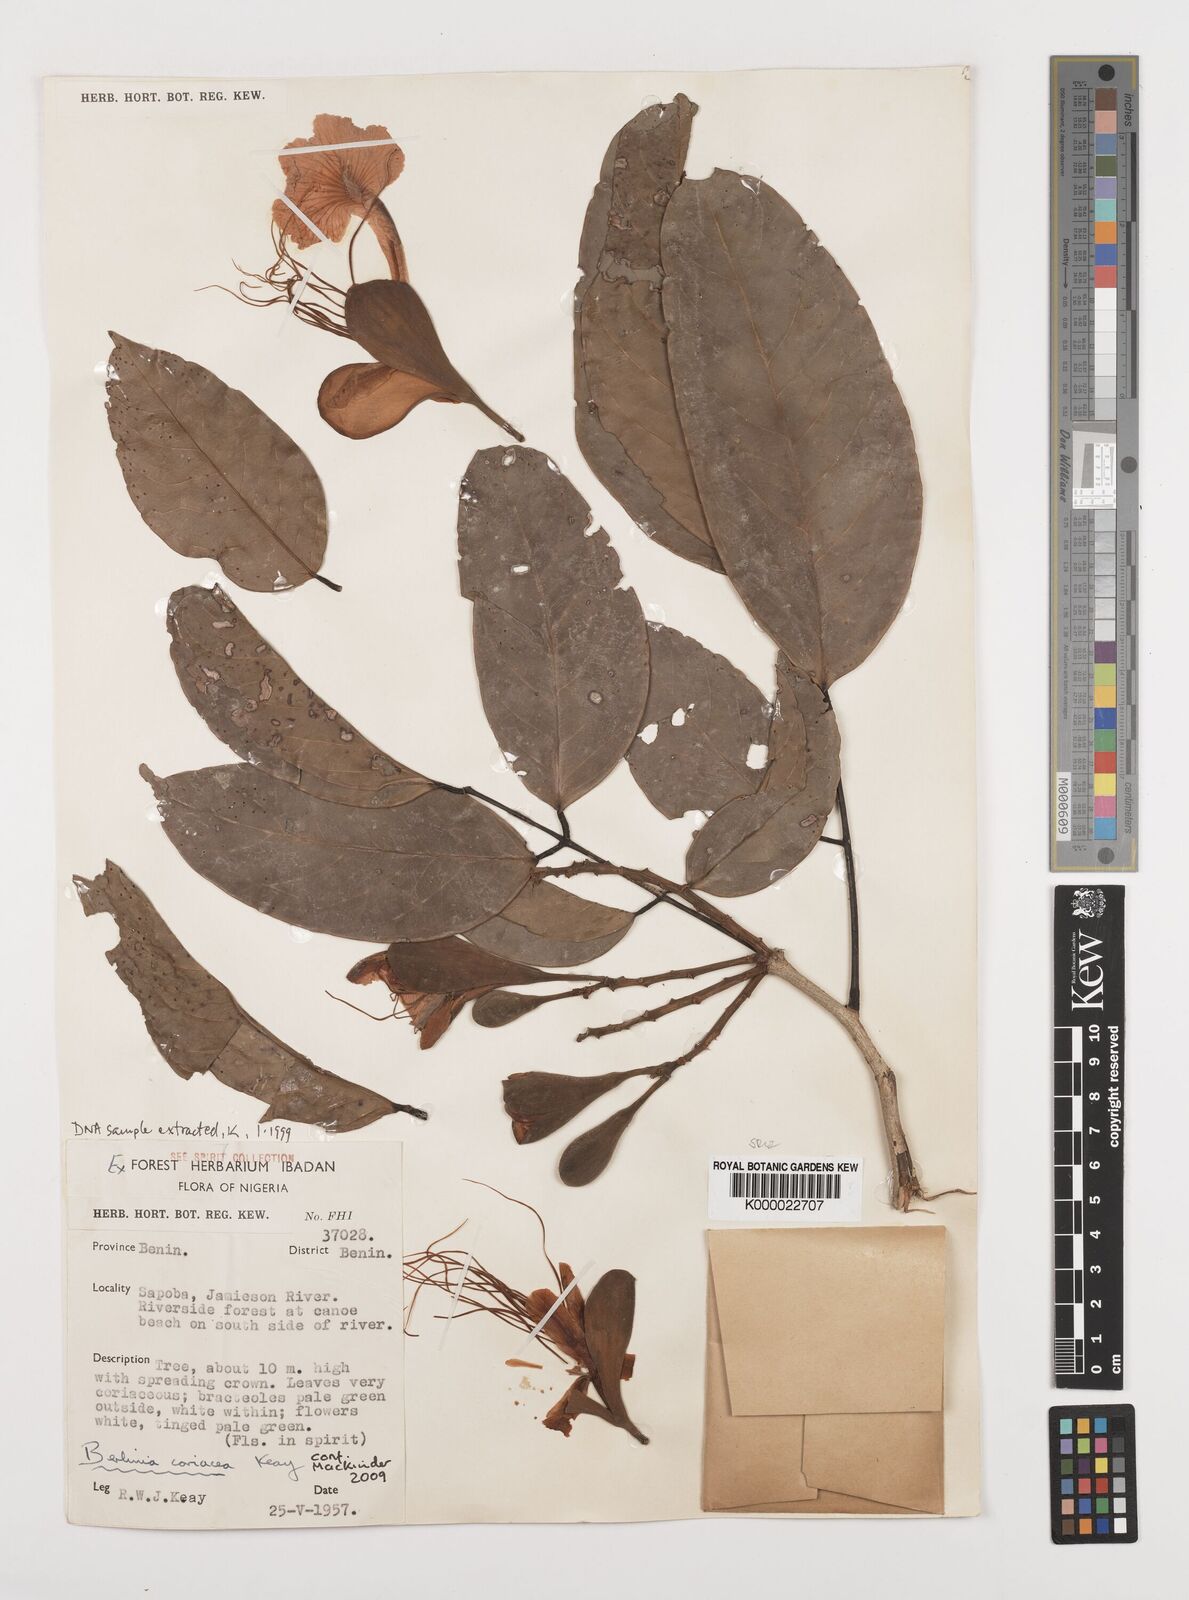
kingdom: Plantae
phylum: Tracheophyta
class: Magnoliopsida
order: Fabales
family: Fabaceae
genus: Berlinia
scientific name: Berlinia coriacea
